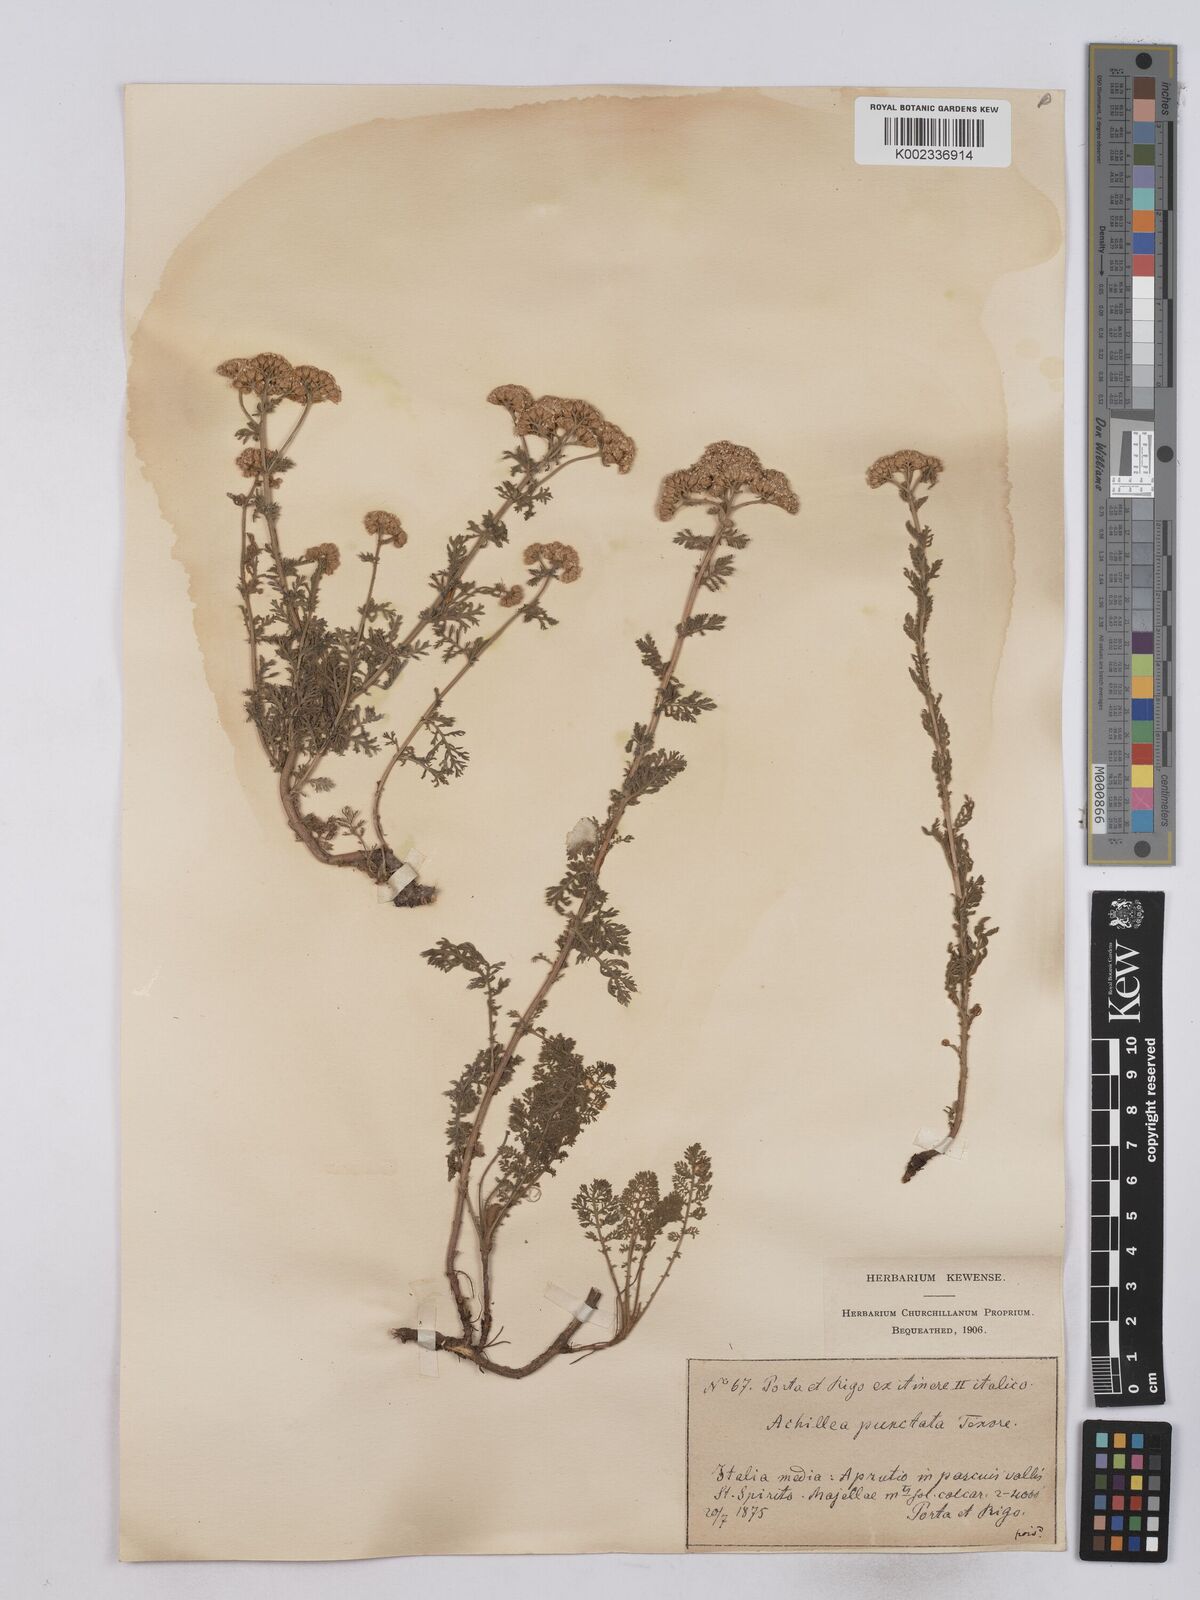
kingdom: Plantae
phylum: Tracheophyta
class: Magnoliopsida
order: Asterales
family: Asteraceae
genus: Achillea
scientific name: Achillea odorata
